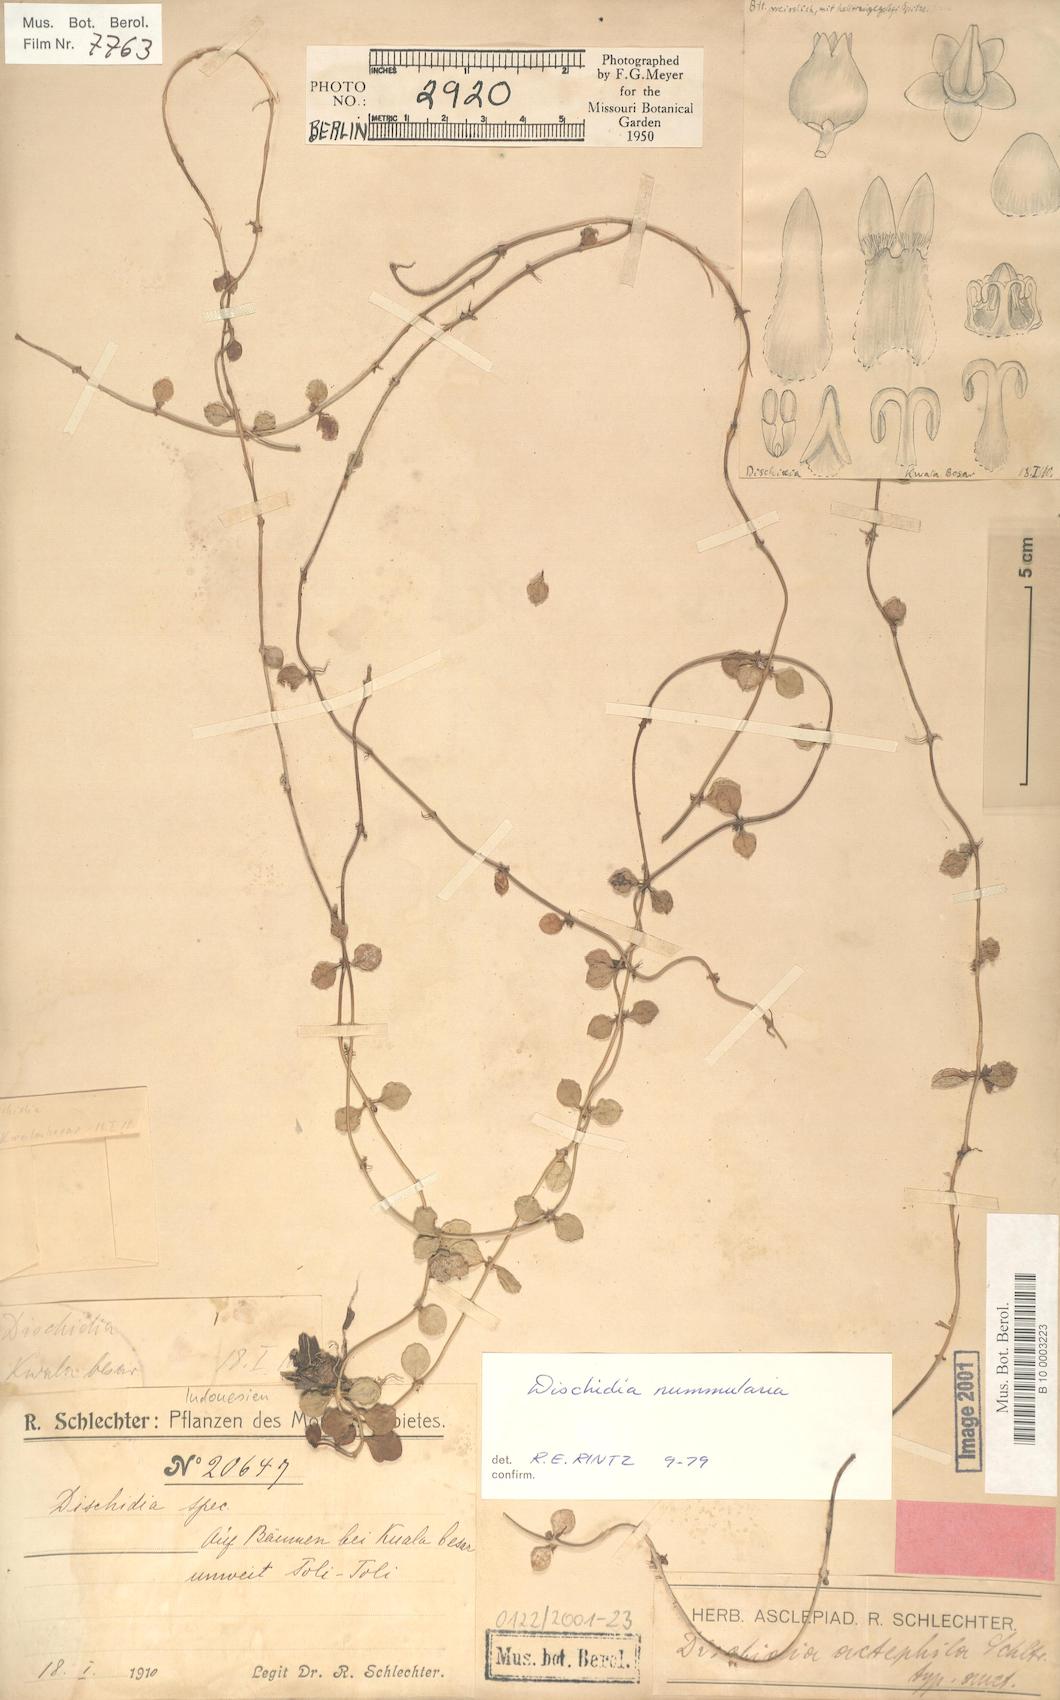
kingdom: Plantae
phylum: Tracheophyta
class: Magnoliopsida
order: Gentianales
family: Apocynaceae
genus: Dischidia
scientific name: Dischidia nummularia
